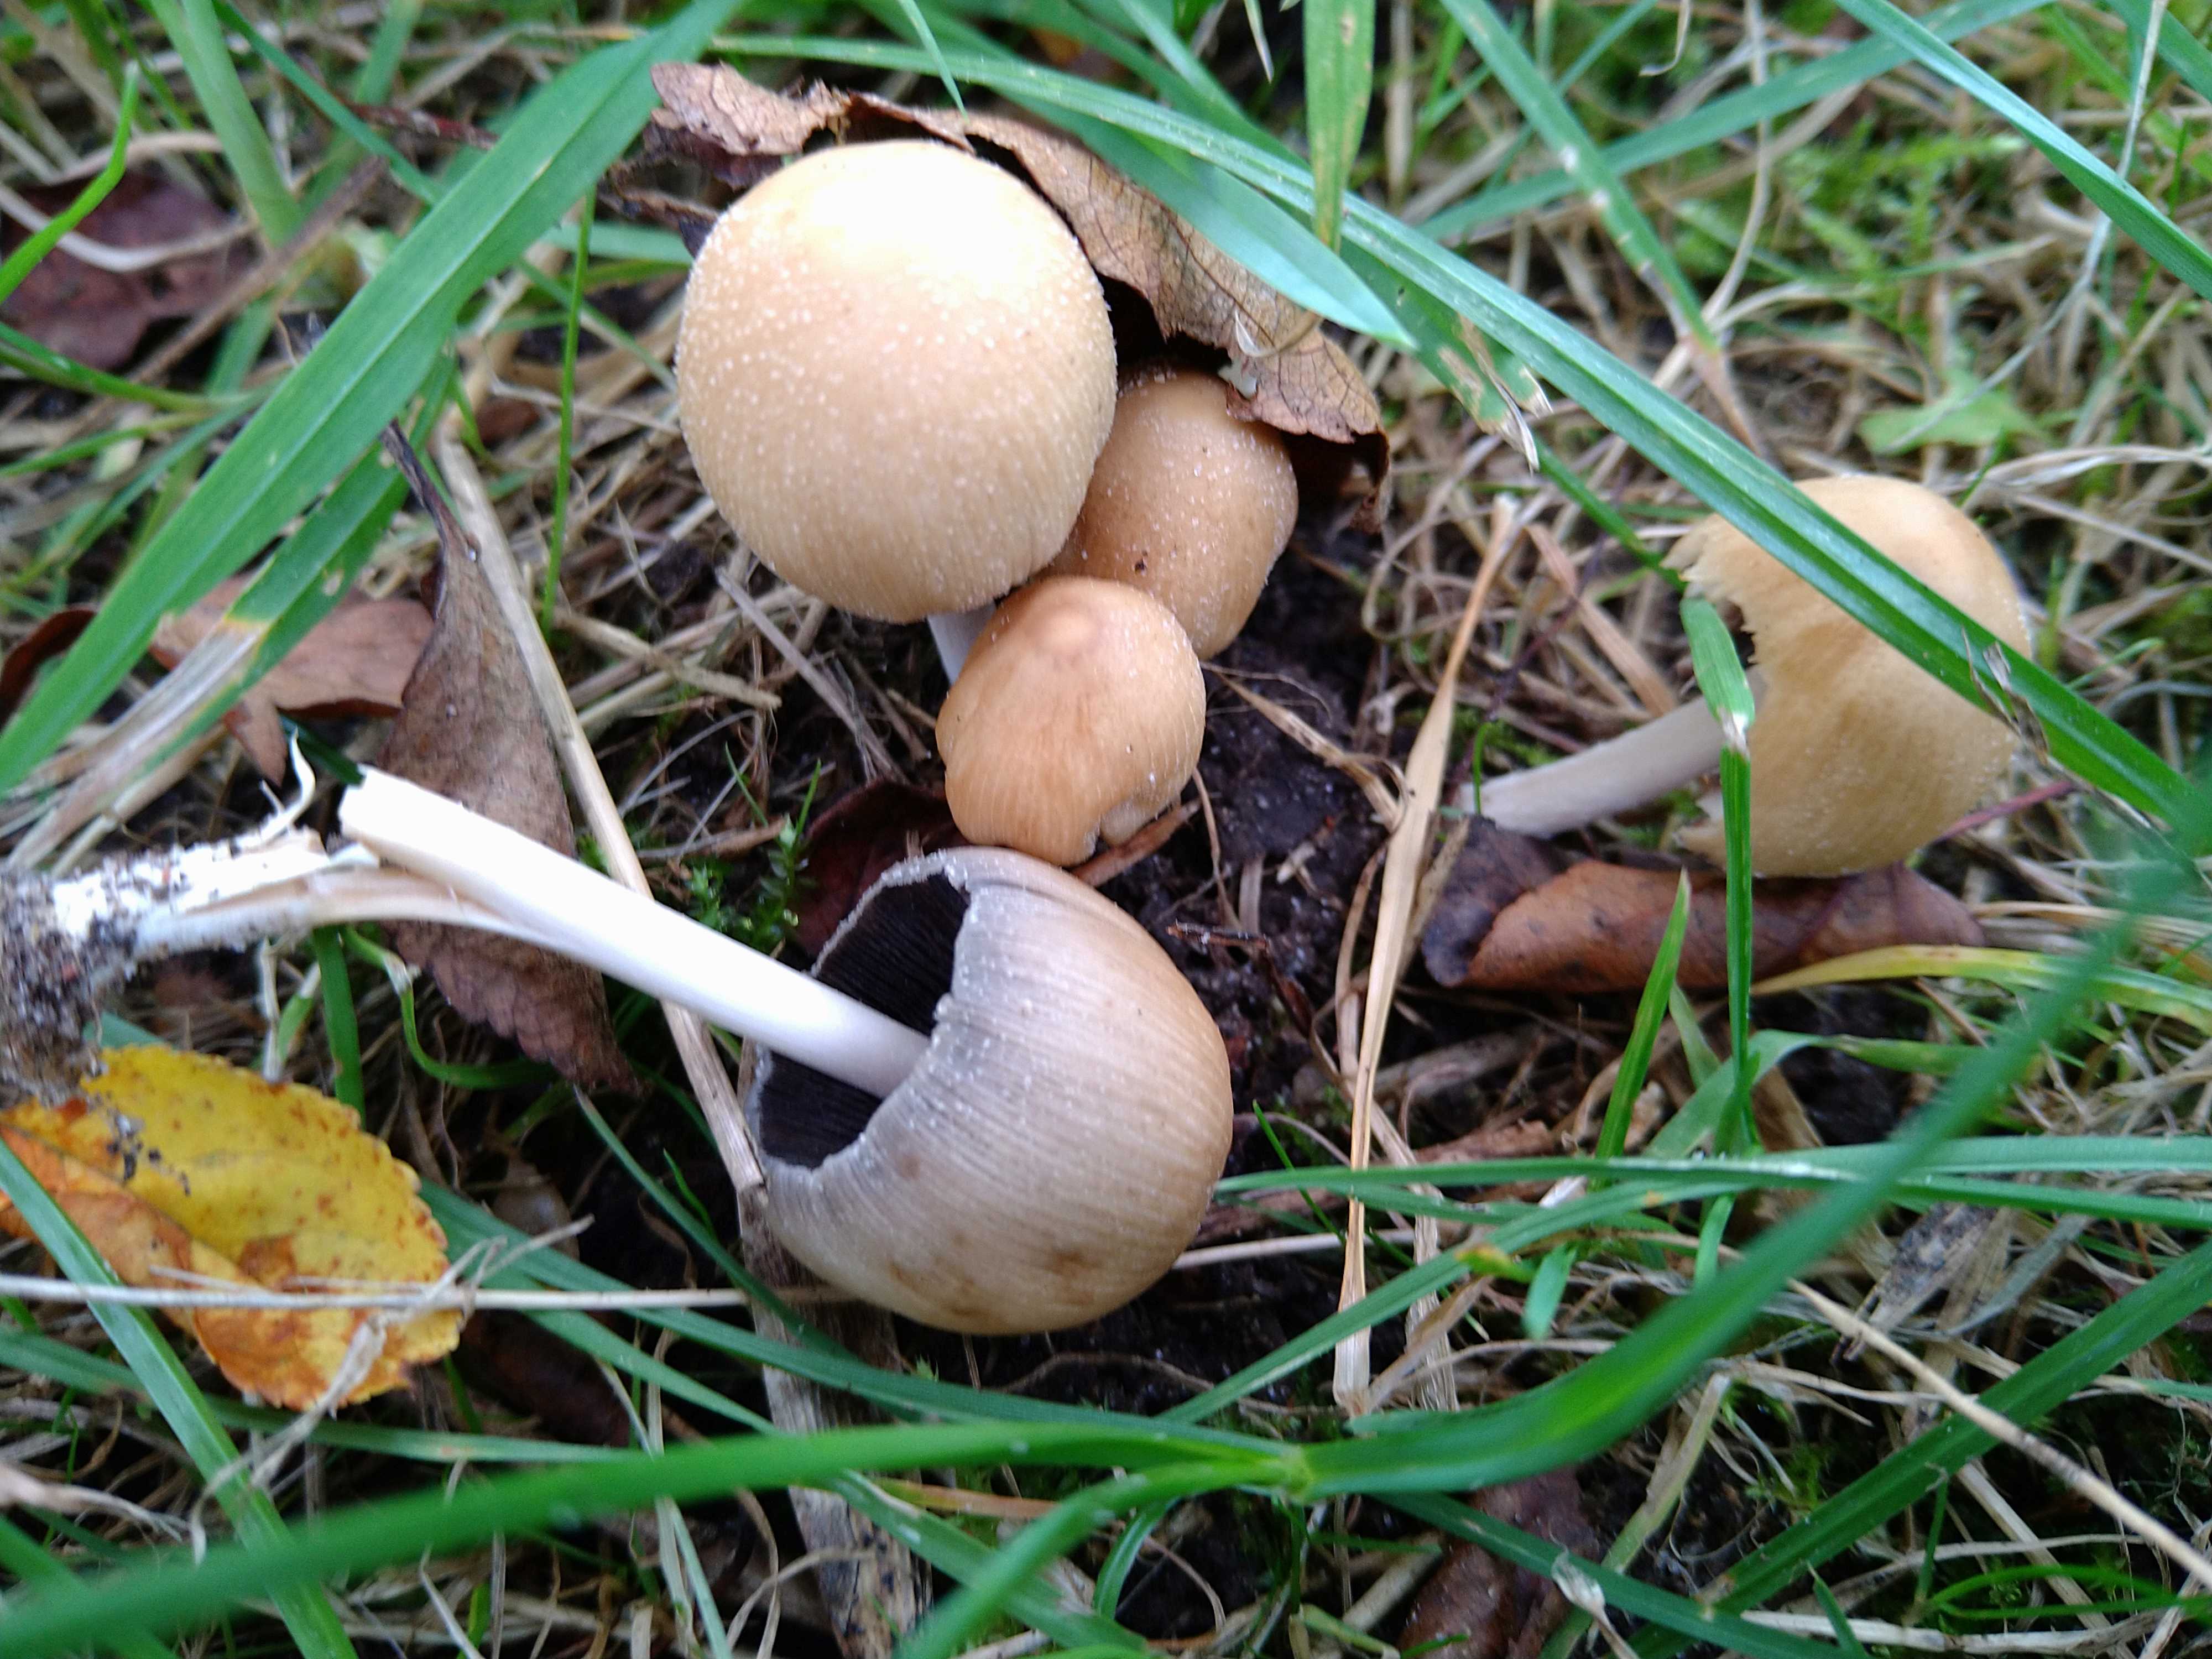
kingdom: Fungi
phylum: Basidiomycota
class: Agaricomycetes
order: Agaricales
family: Psathyrellaceae
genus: Coprinellus
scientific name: Coprinellus micaceus
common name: glimmer-blækhat
